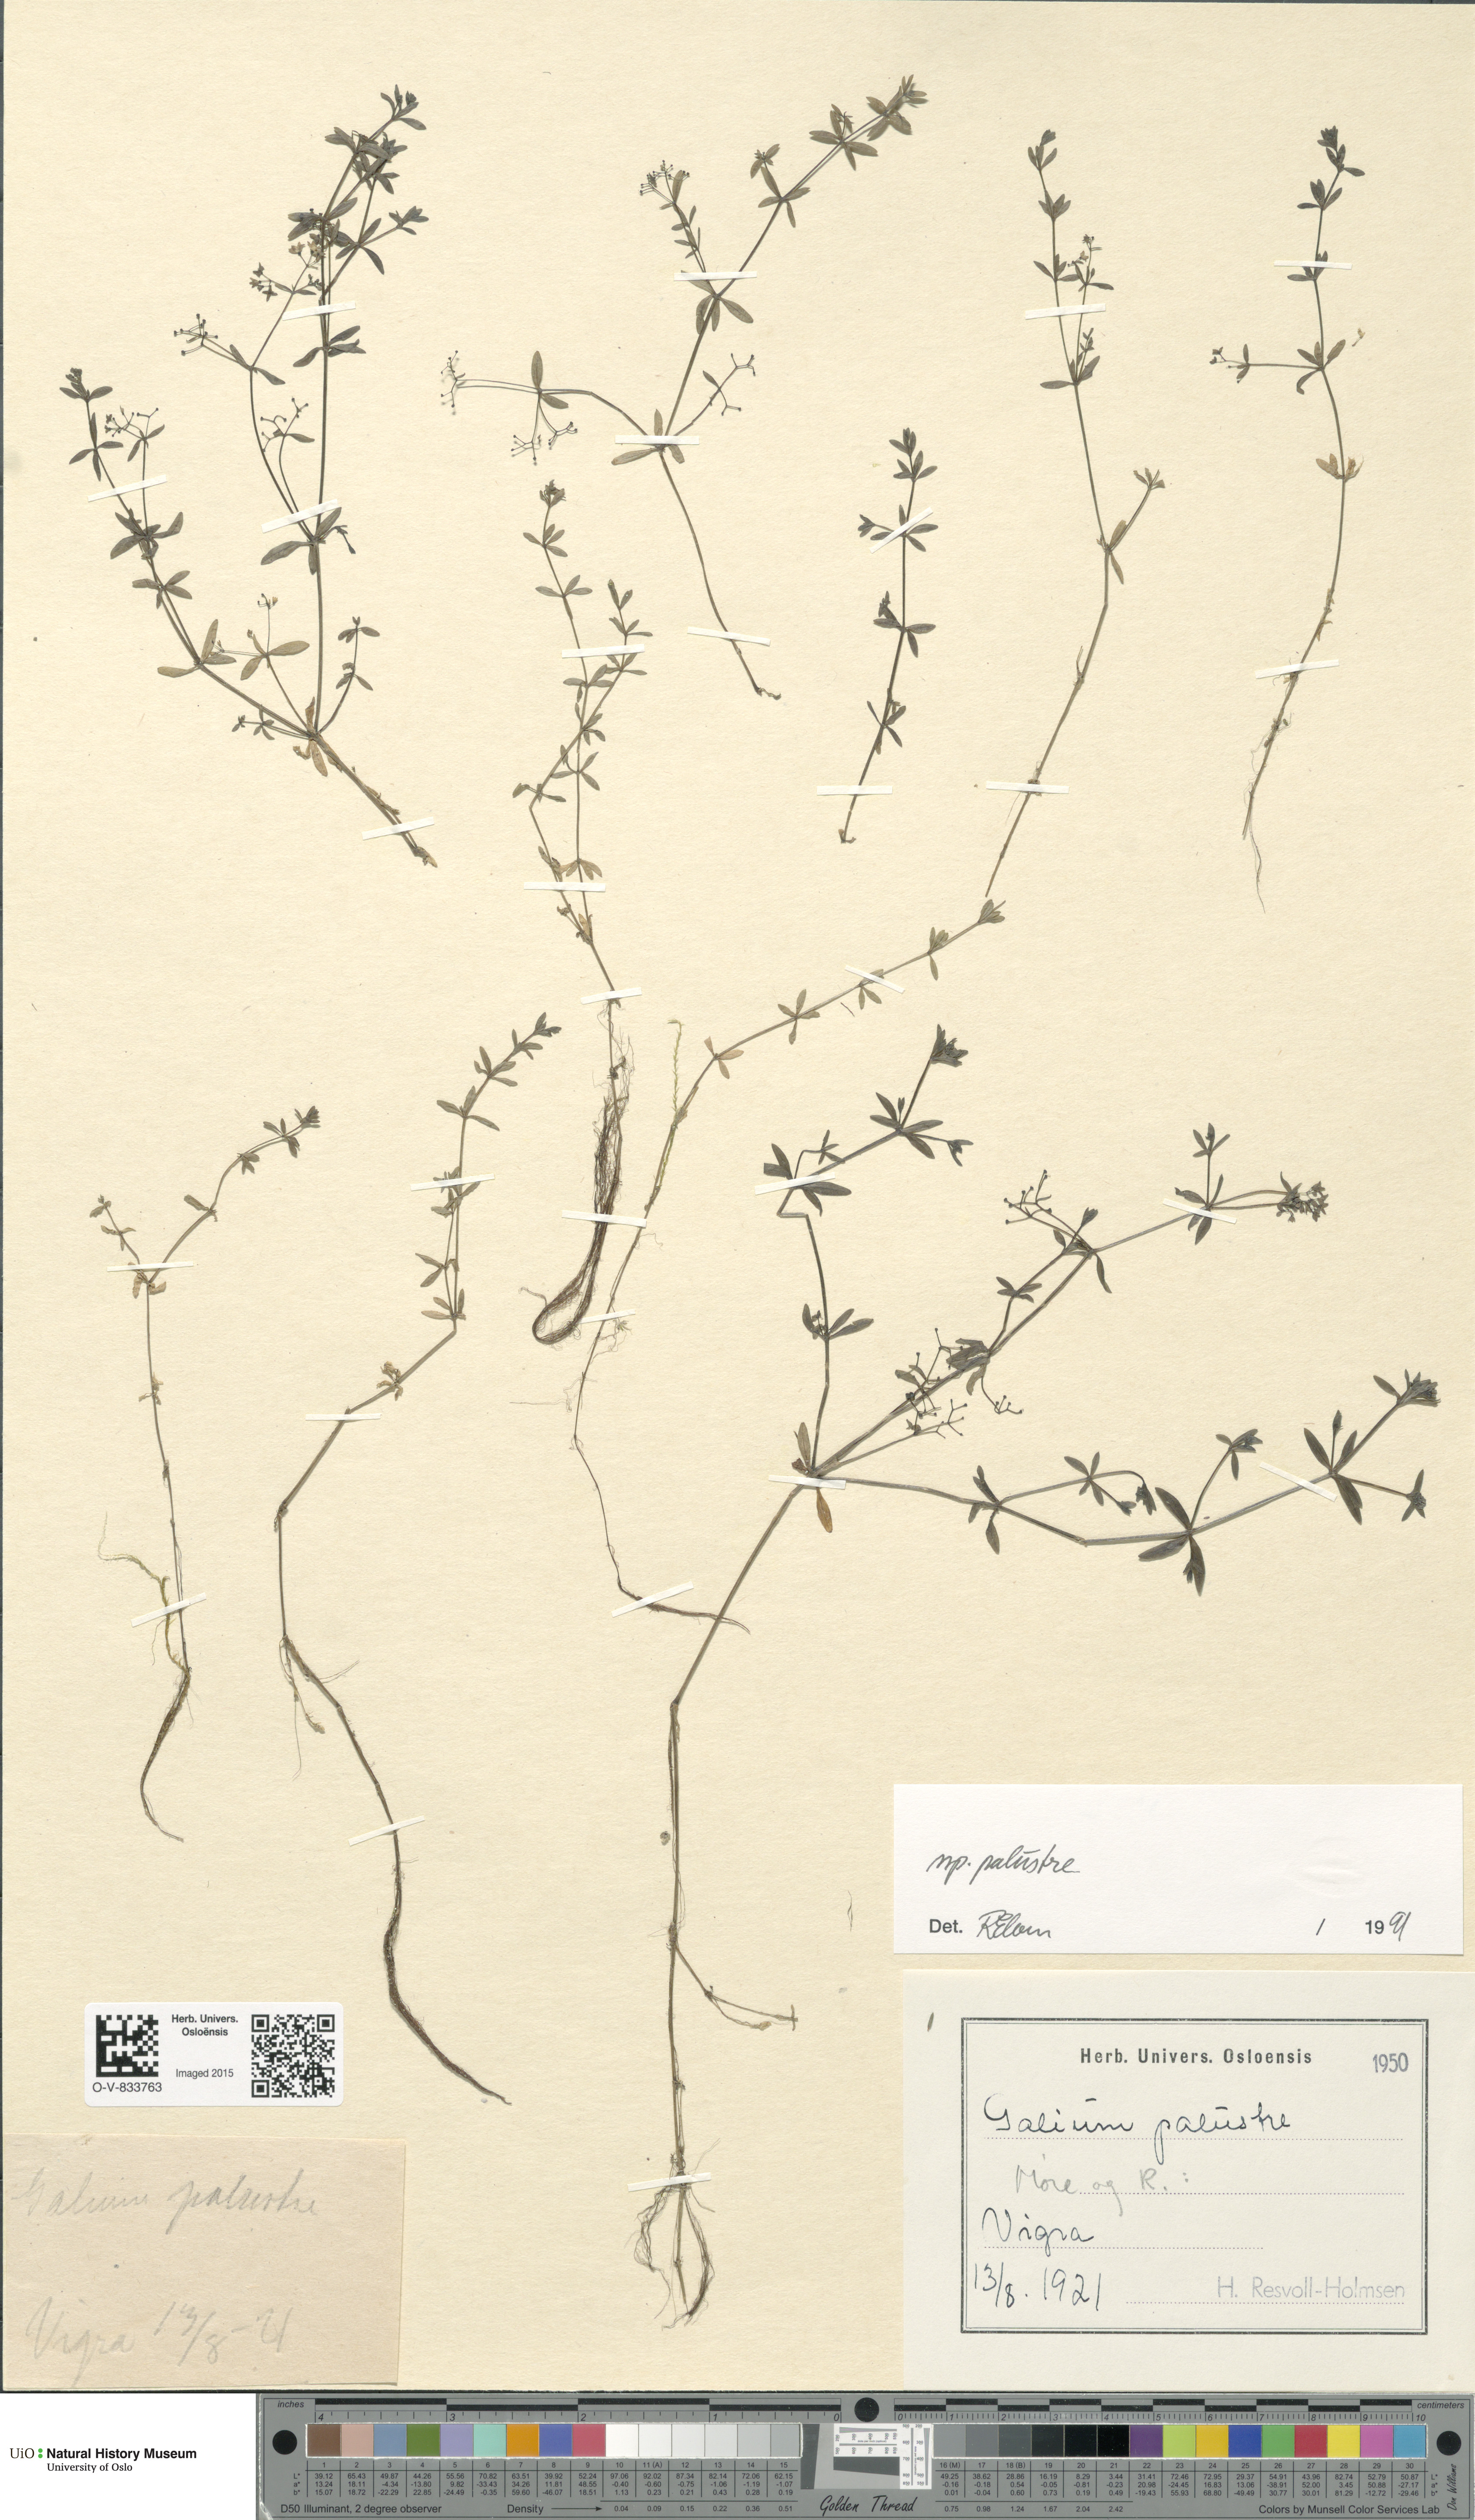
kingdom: Plantae
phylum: Tracheophyta
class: Magnoliopsida
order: Gentianales
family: Rubiaceae
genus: Galium
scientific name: Galium palustre
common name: Common marsh-bedstraw
